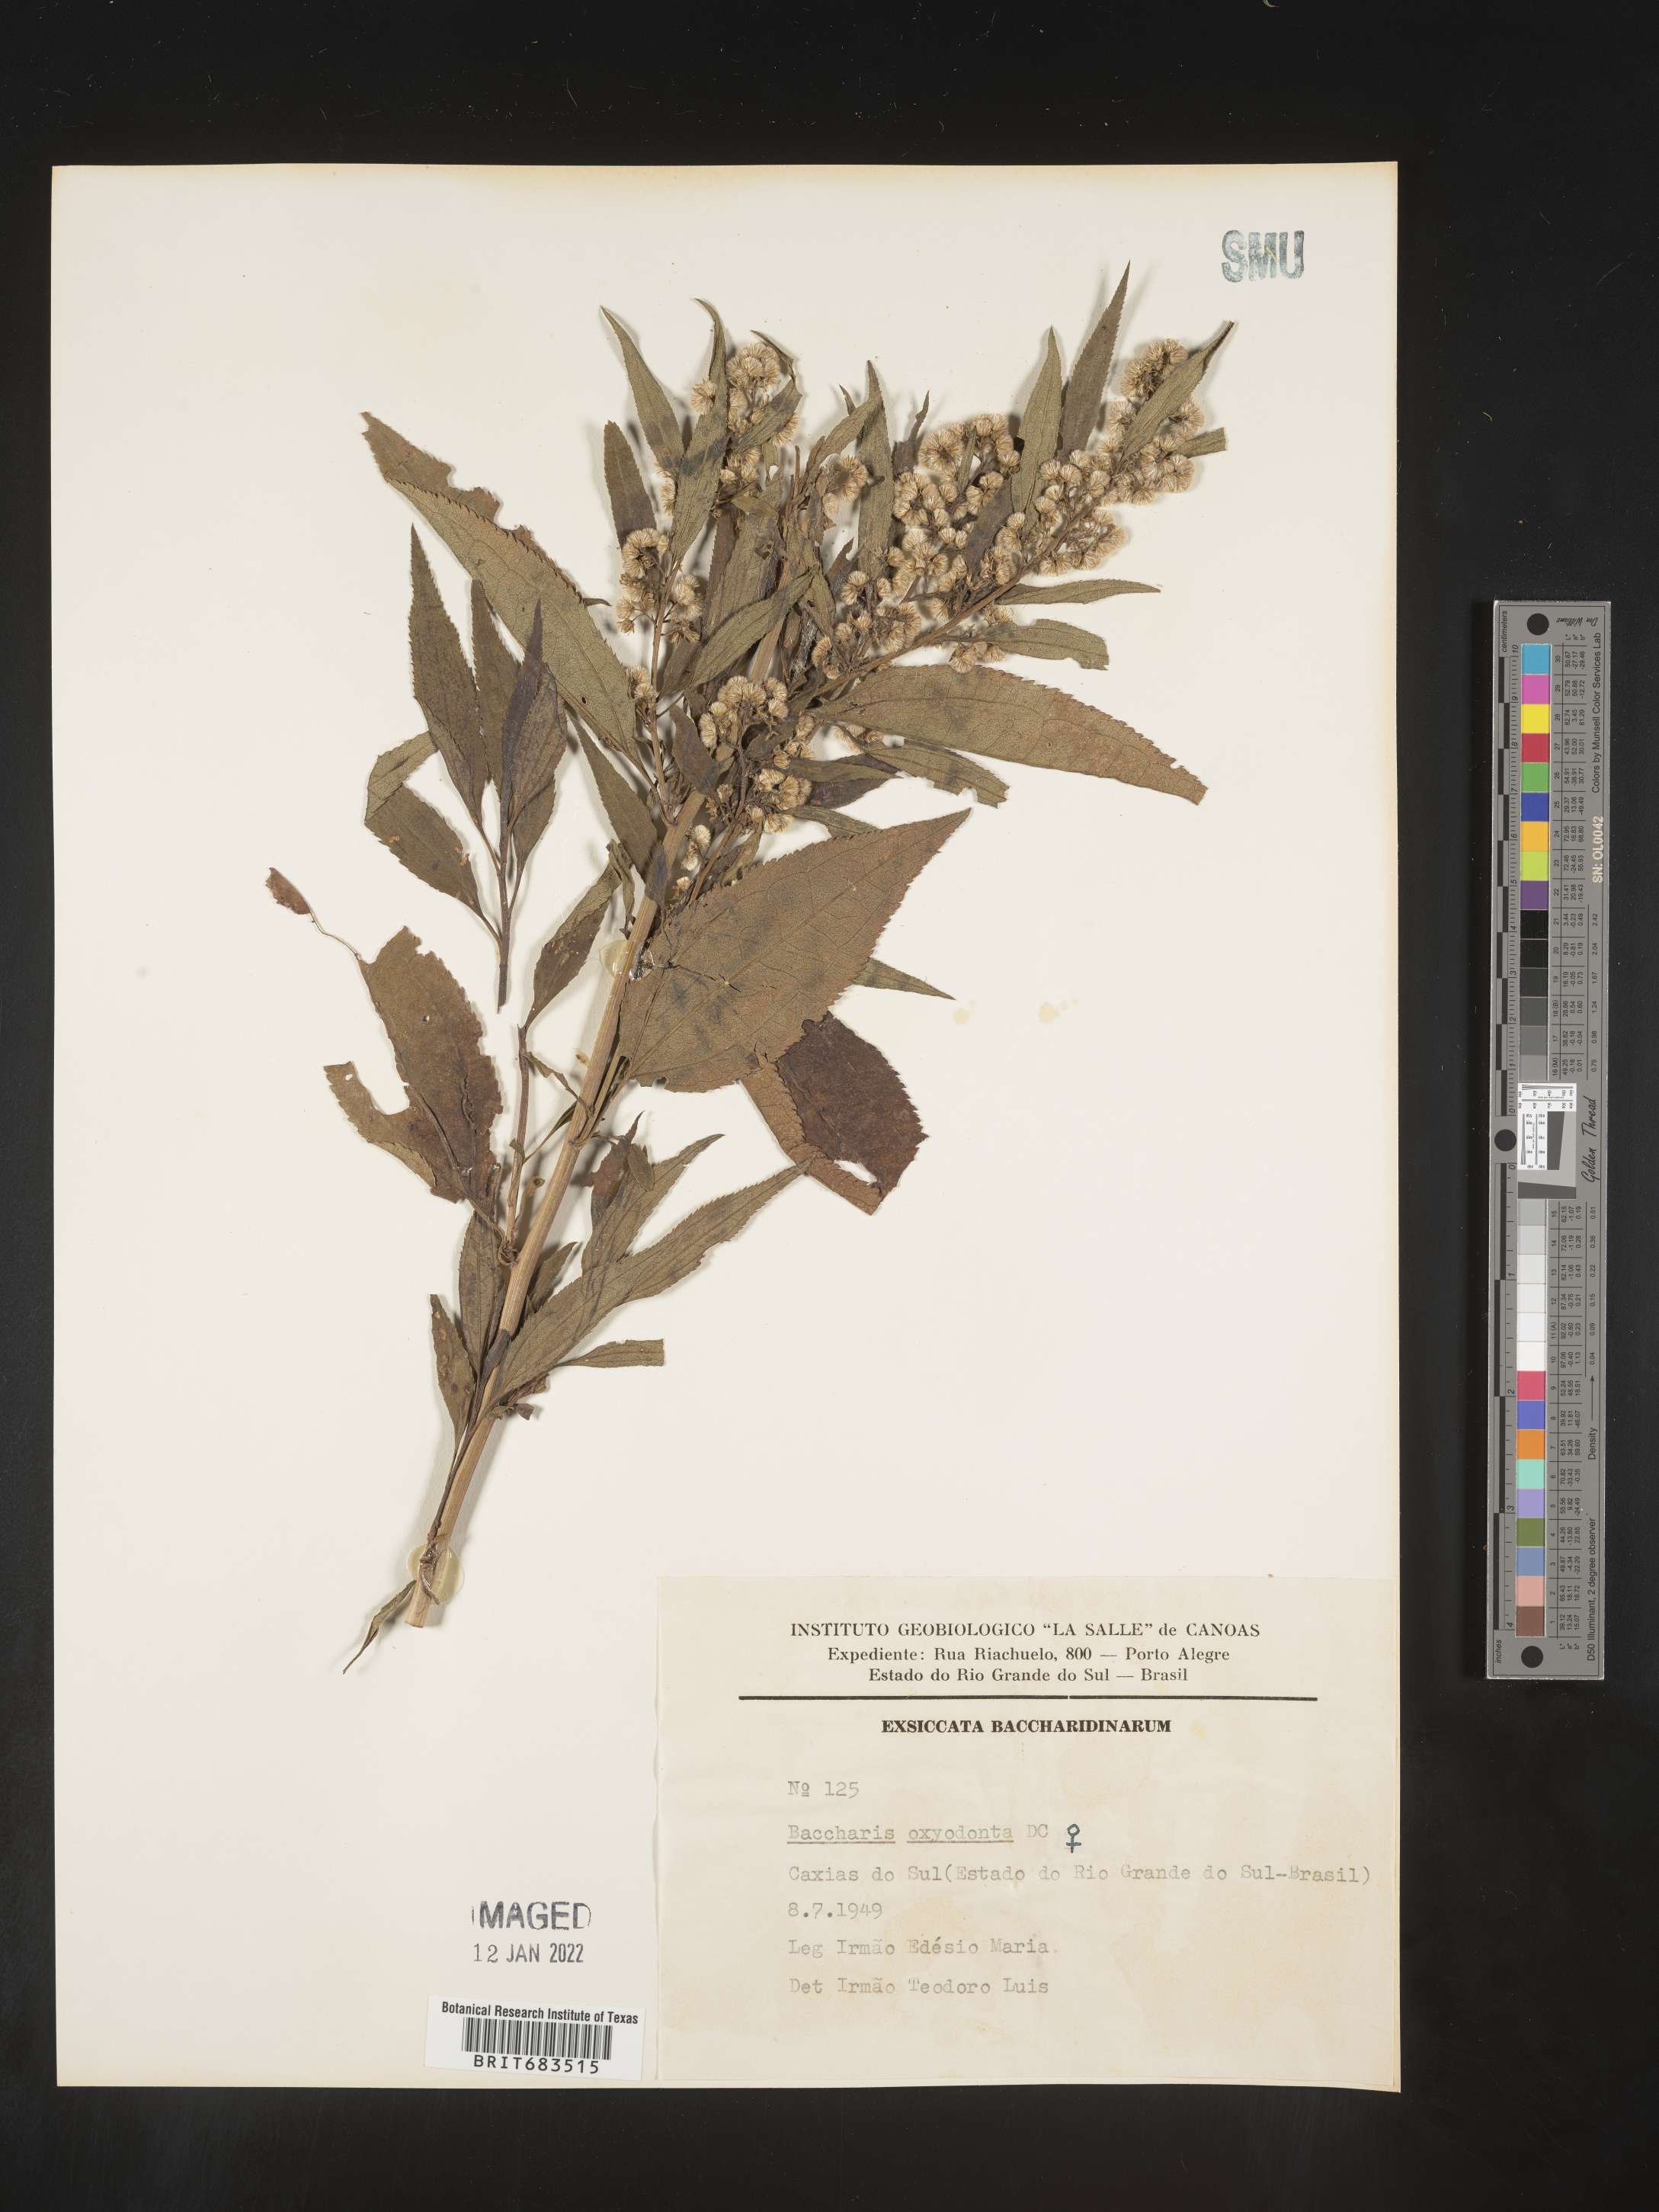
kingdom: Plantae
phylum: Tracheophyta
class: Magnoliopsida
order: Asterales
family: Asteraceae
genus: Baccharis
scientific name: Baccharis
